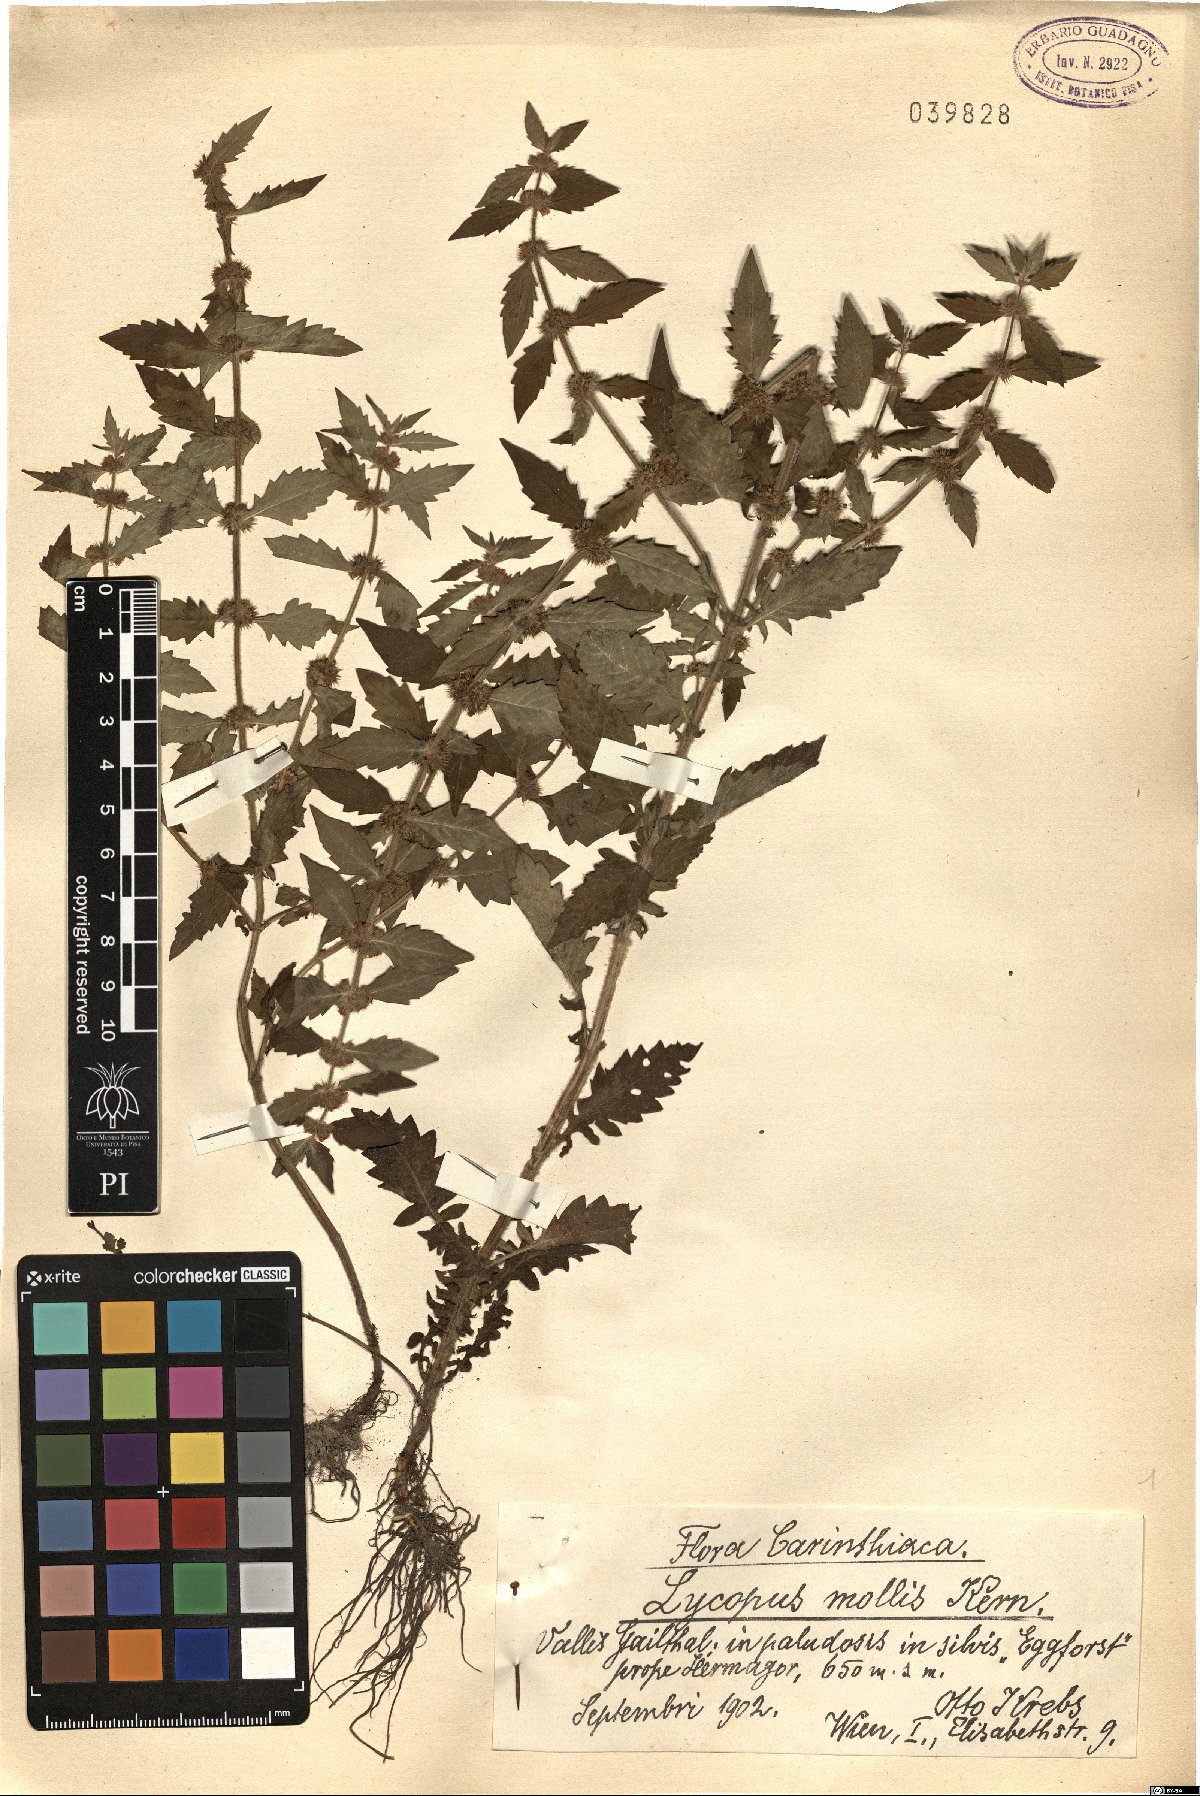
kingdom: Plantae
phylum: Tracheophyta
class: Magnoliopsida
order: Lamiales
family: Lamiaceae
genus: Lycopus
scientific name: Lycopus europaeus
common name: European bugleweed
